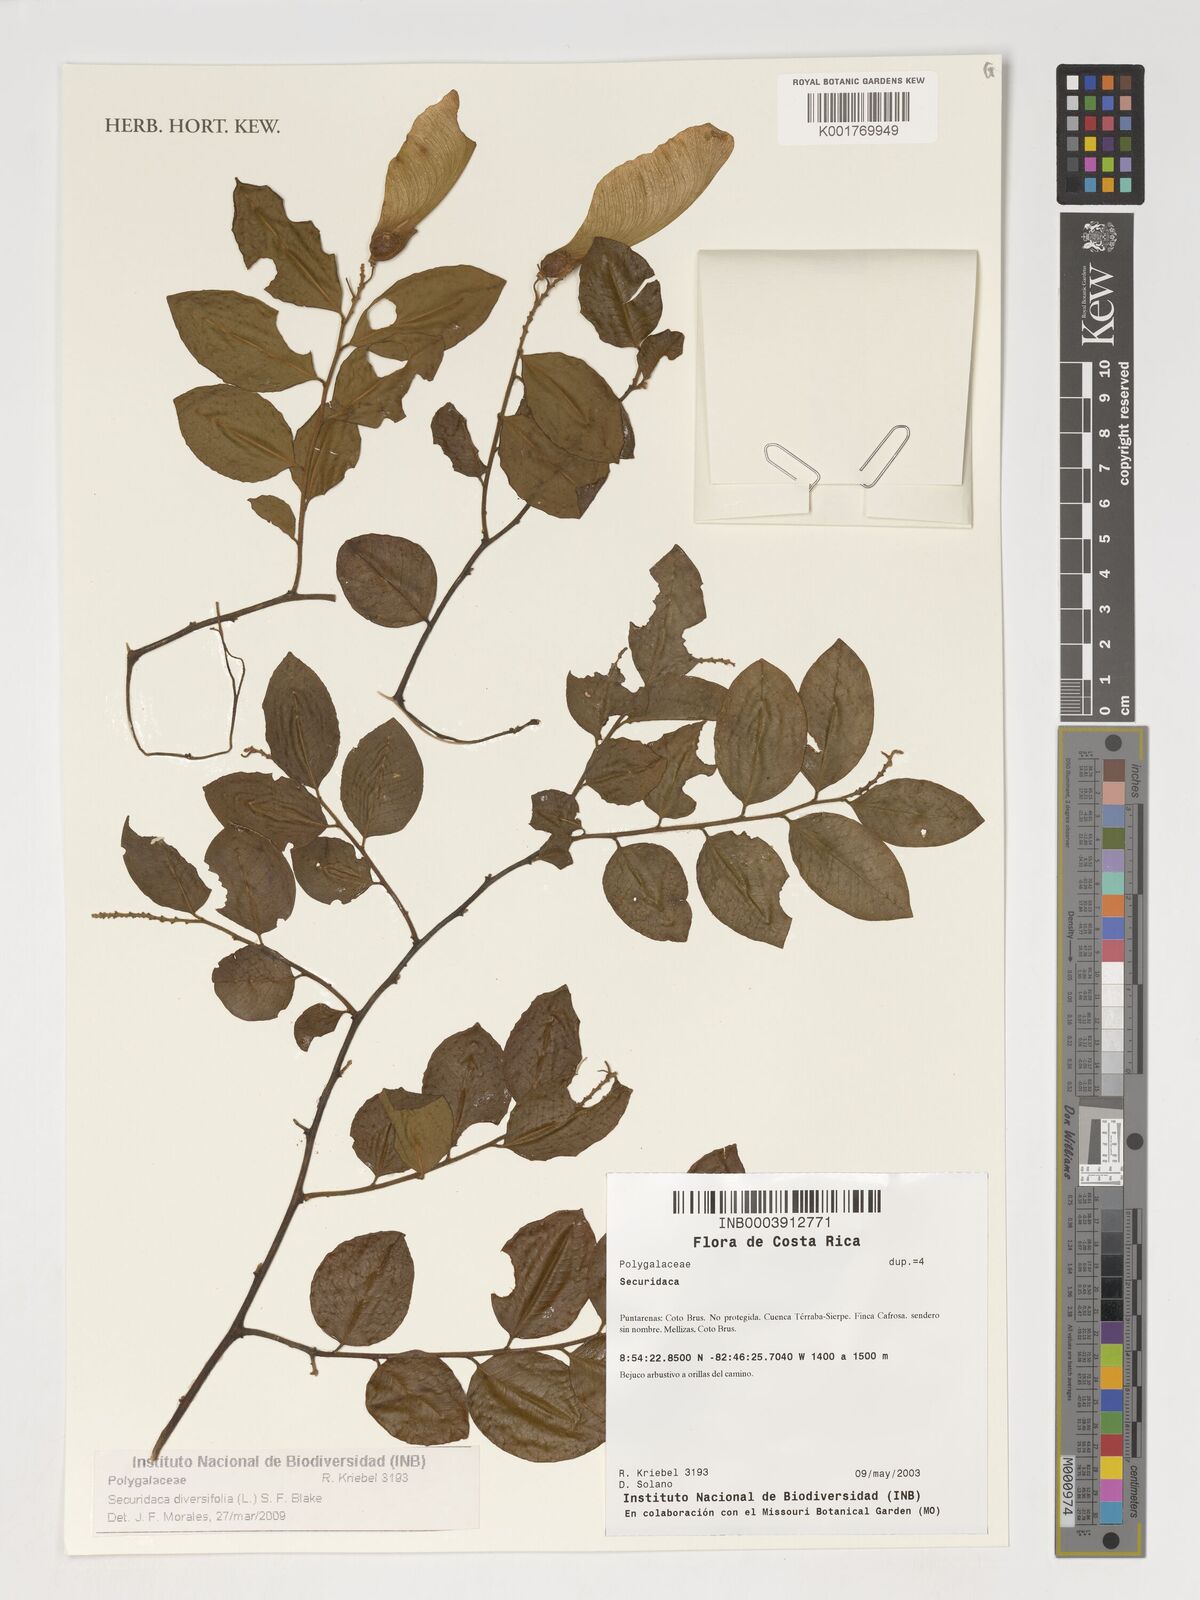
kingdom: Plantae
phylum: Tracheophyta
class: Magnoliopsida
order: Fabales
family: Polygalaceae
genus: Securidaca
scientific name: Securidaca diversifolia
